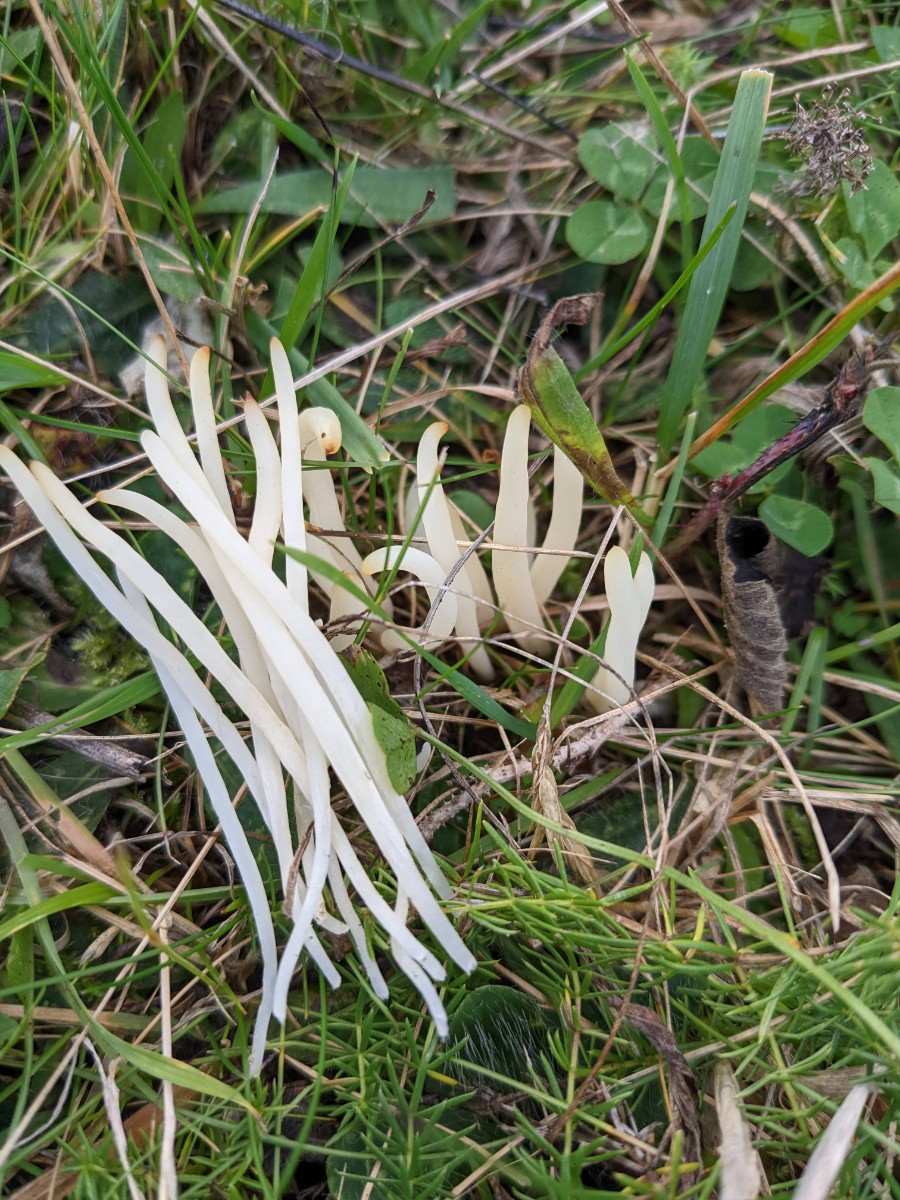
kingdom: Fungi
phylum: Basidiomycota
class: Agaricomycetes
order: Agaricales
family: Clavariaceae
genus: Clavaria
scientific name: Clavaria fragilis
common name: bugtet køllesvamp
